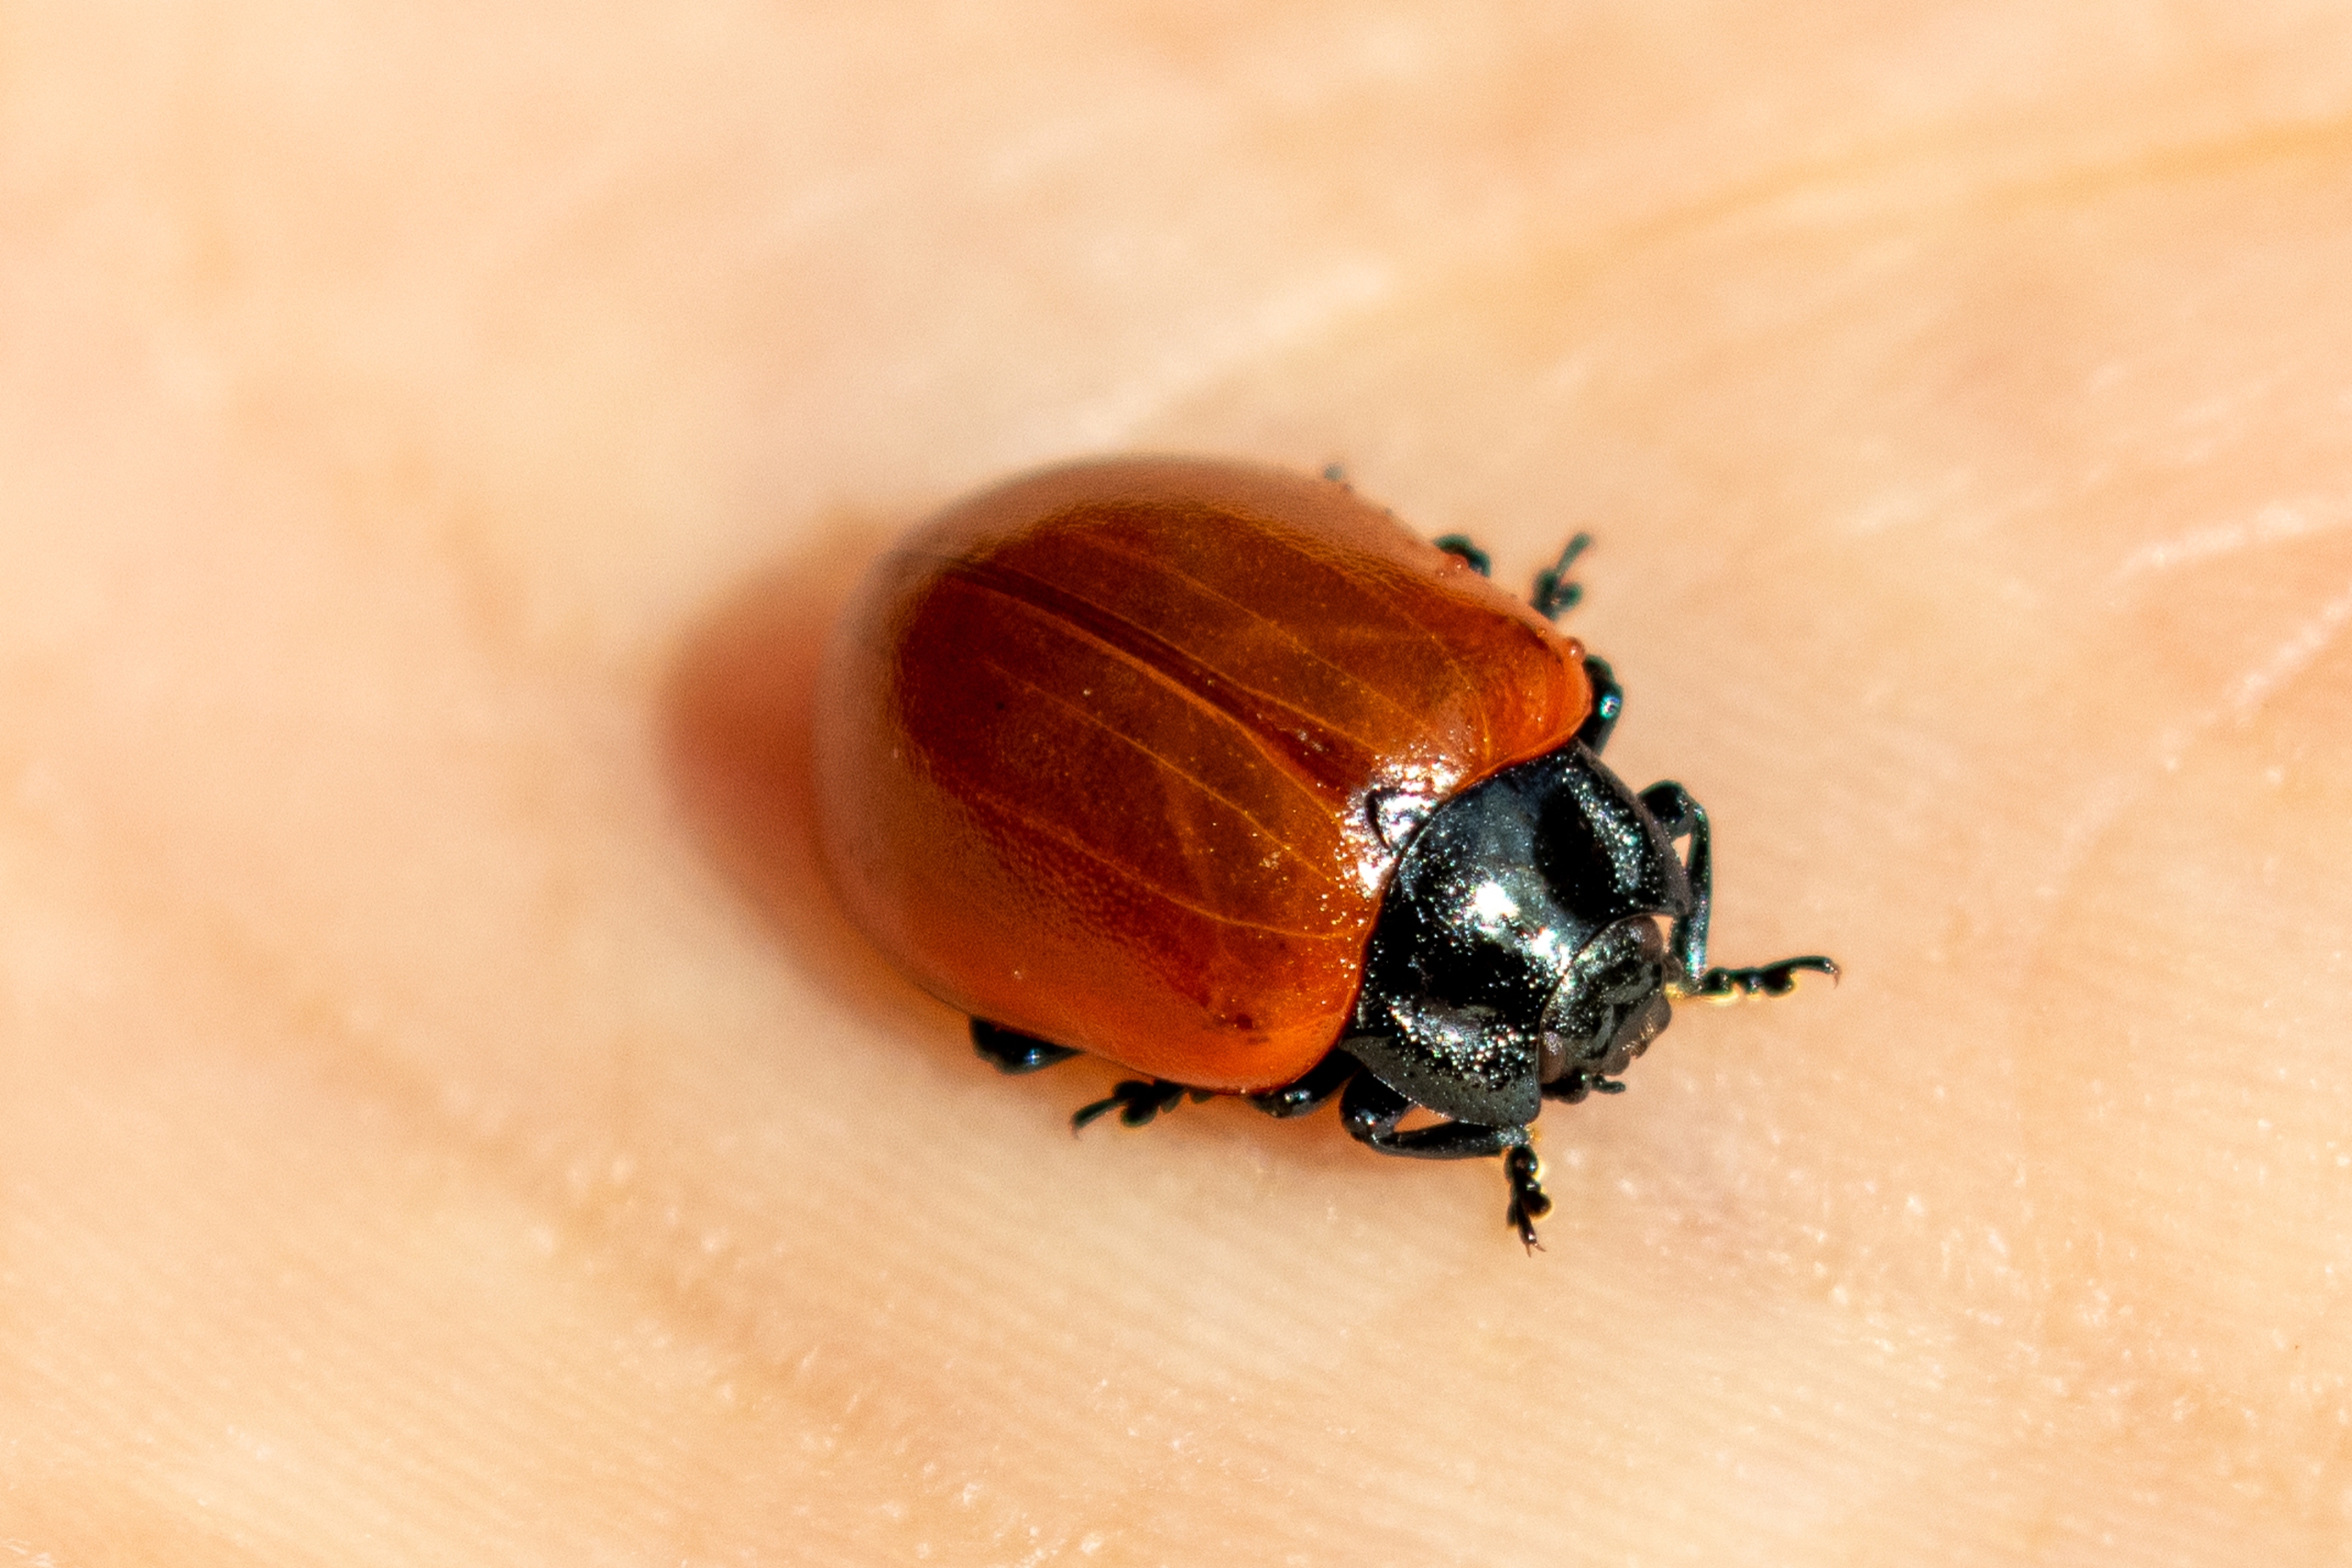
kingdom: Animalia
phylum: Arthropoda
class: Insecta
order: Coleoptera
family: Chrysomelidae
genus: Chrysomela
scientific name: Chrysomela populi
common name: Poppelbladbille
